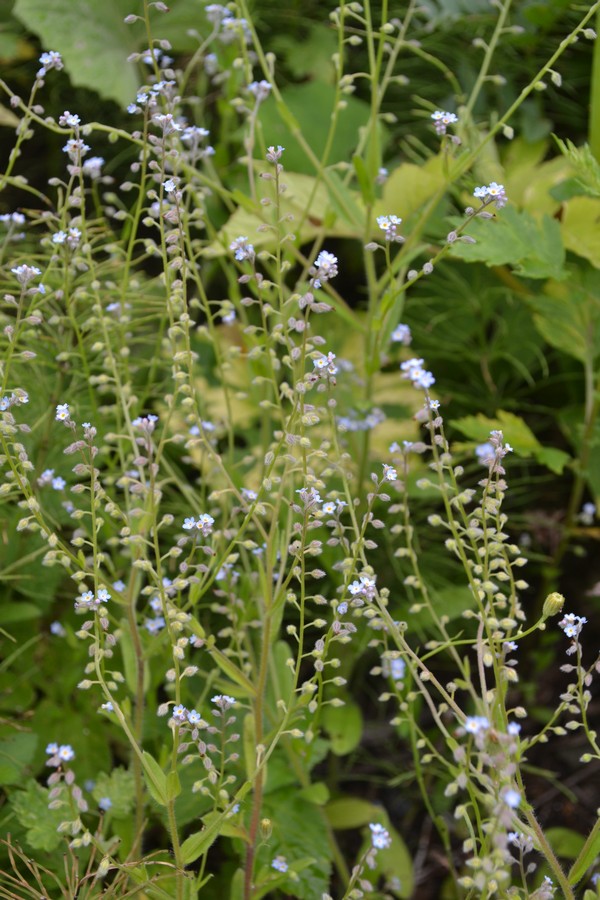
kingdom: Plantae
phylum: Tracheophyta
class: Magnoliopsida
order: Boraginales
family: Boraginaceae
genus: Myosotis
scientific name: Myosotis stricta
